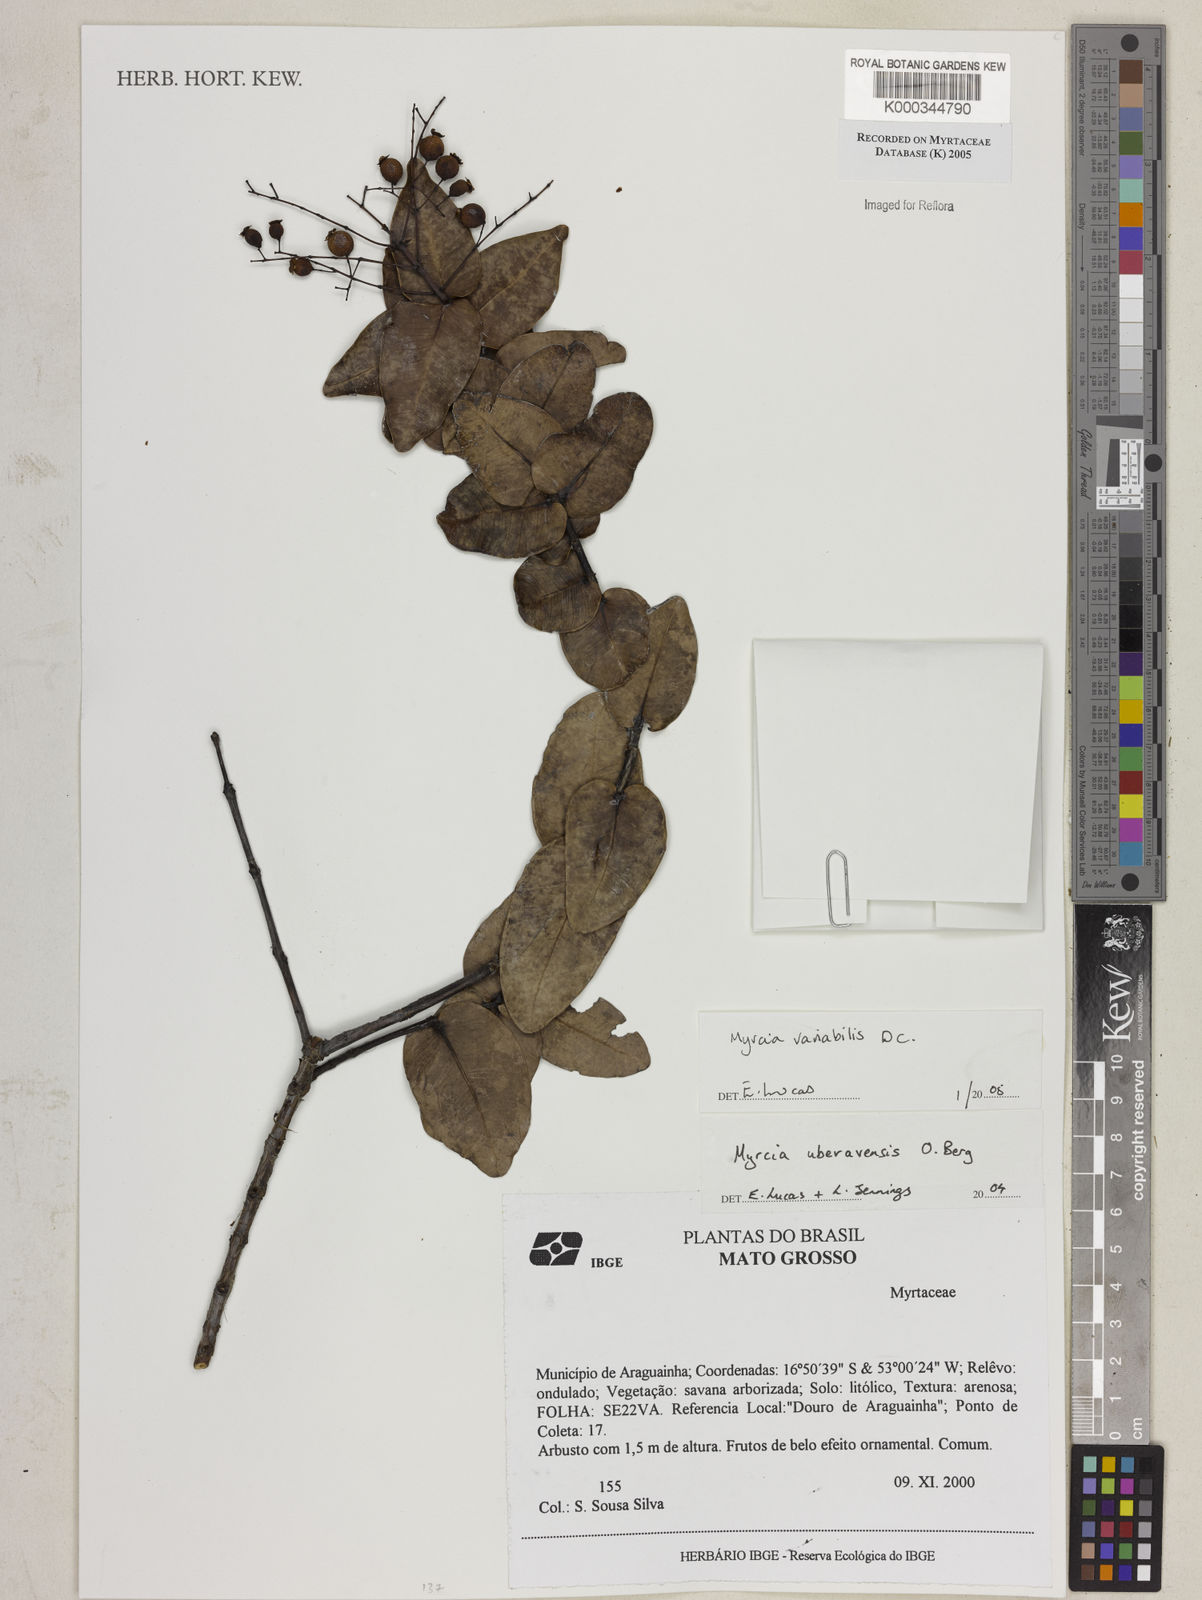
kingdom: Plantae
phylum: Tracheophyta
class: Magnoliopsida
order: Myrtales
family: Myrtaceae
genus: Myrcia
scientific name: Myrcia variabilis
